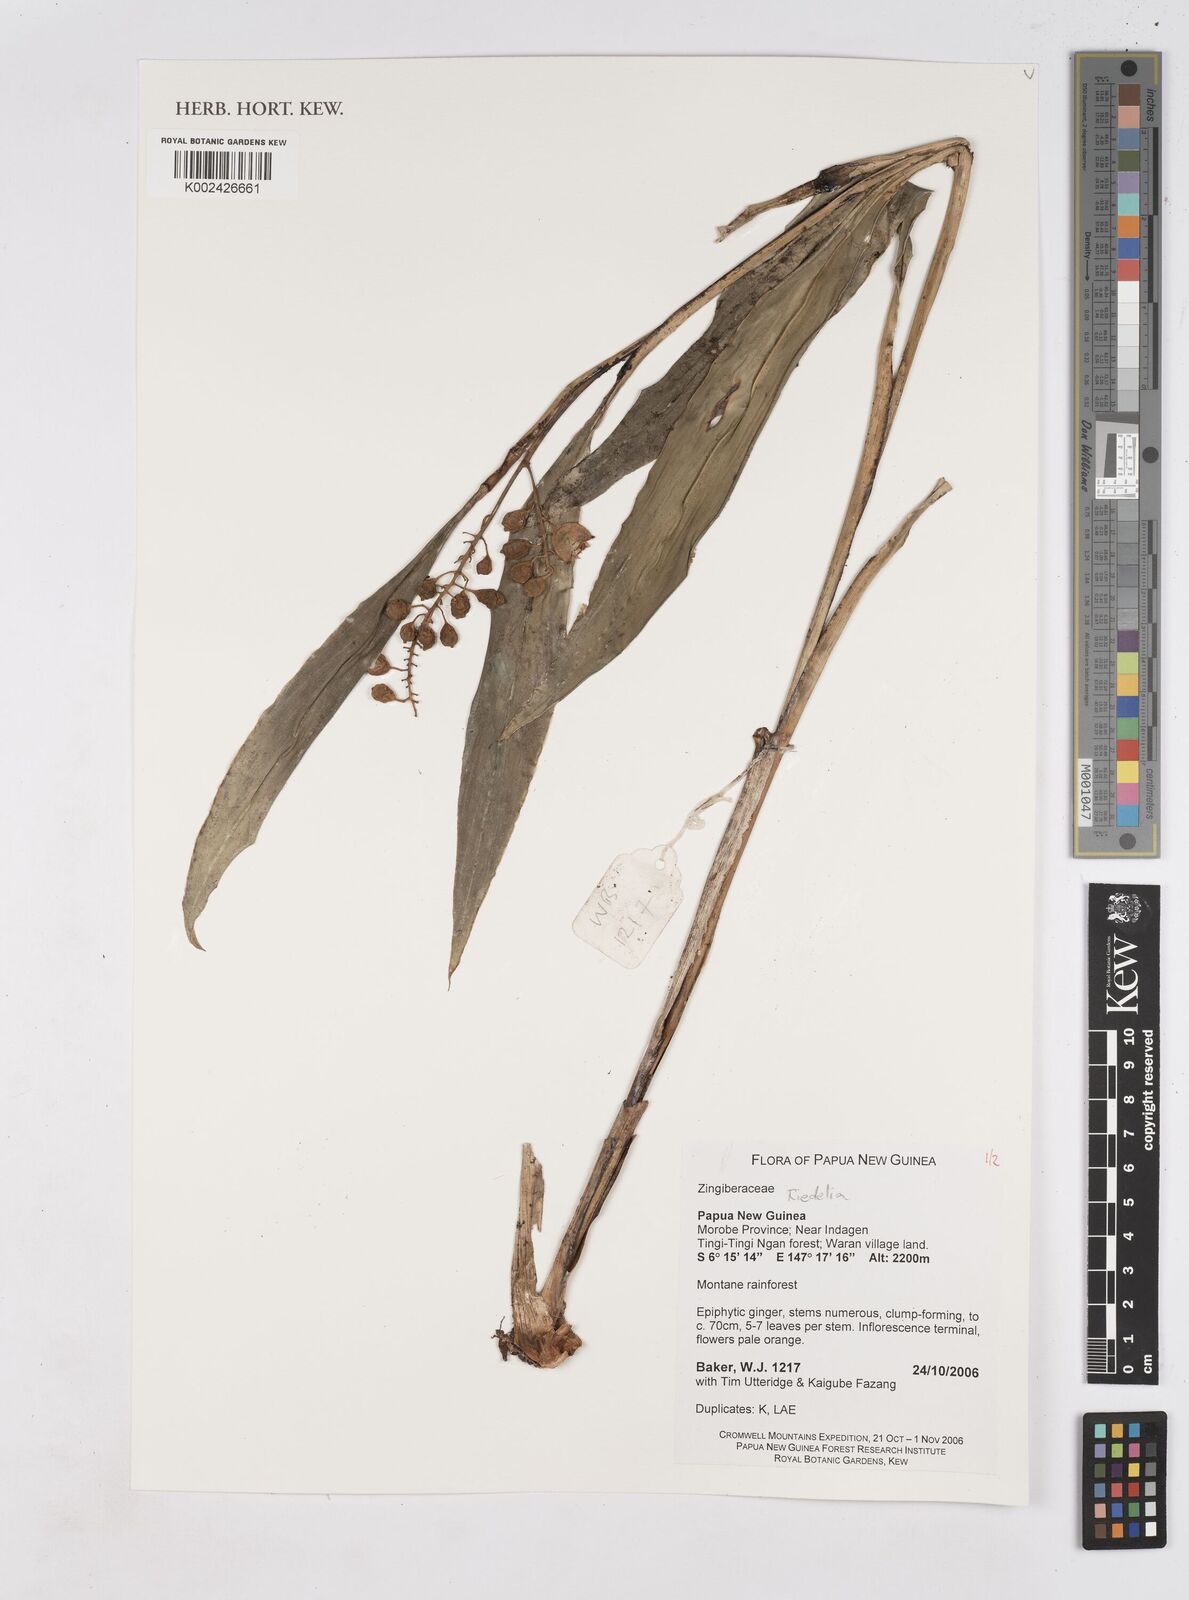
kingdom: Plantae
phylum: Tracheophyta
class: Liliopsida
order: Zingiberales
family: Zingiberaceae
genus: Riedelia
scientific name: Riedelia
